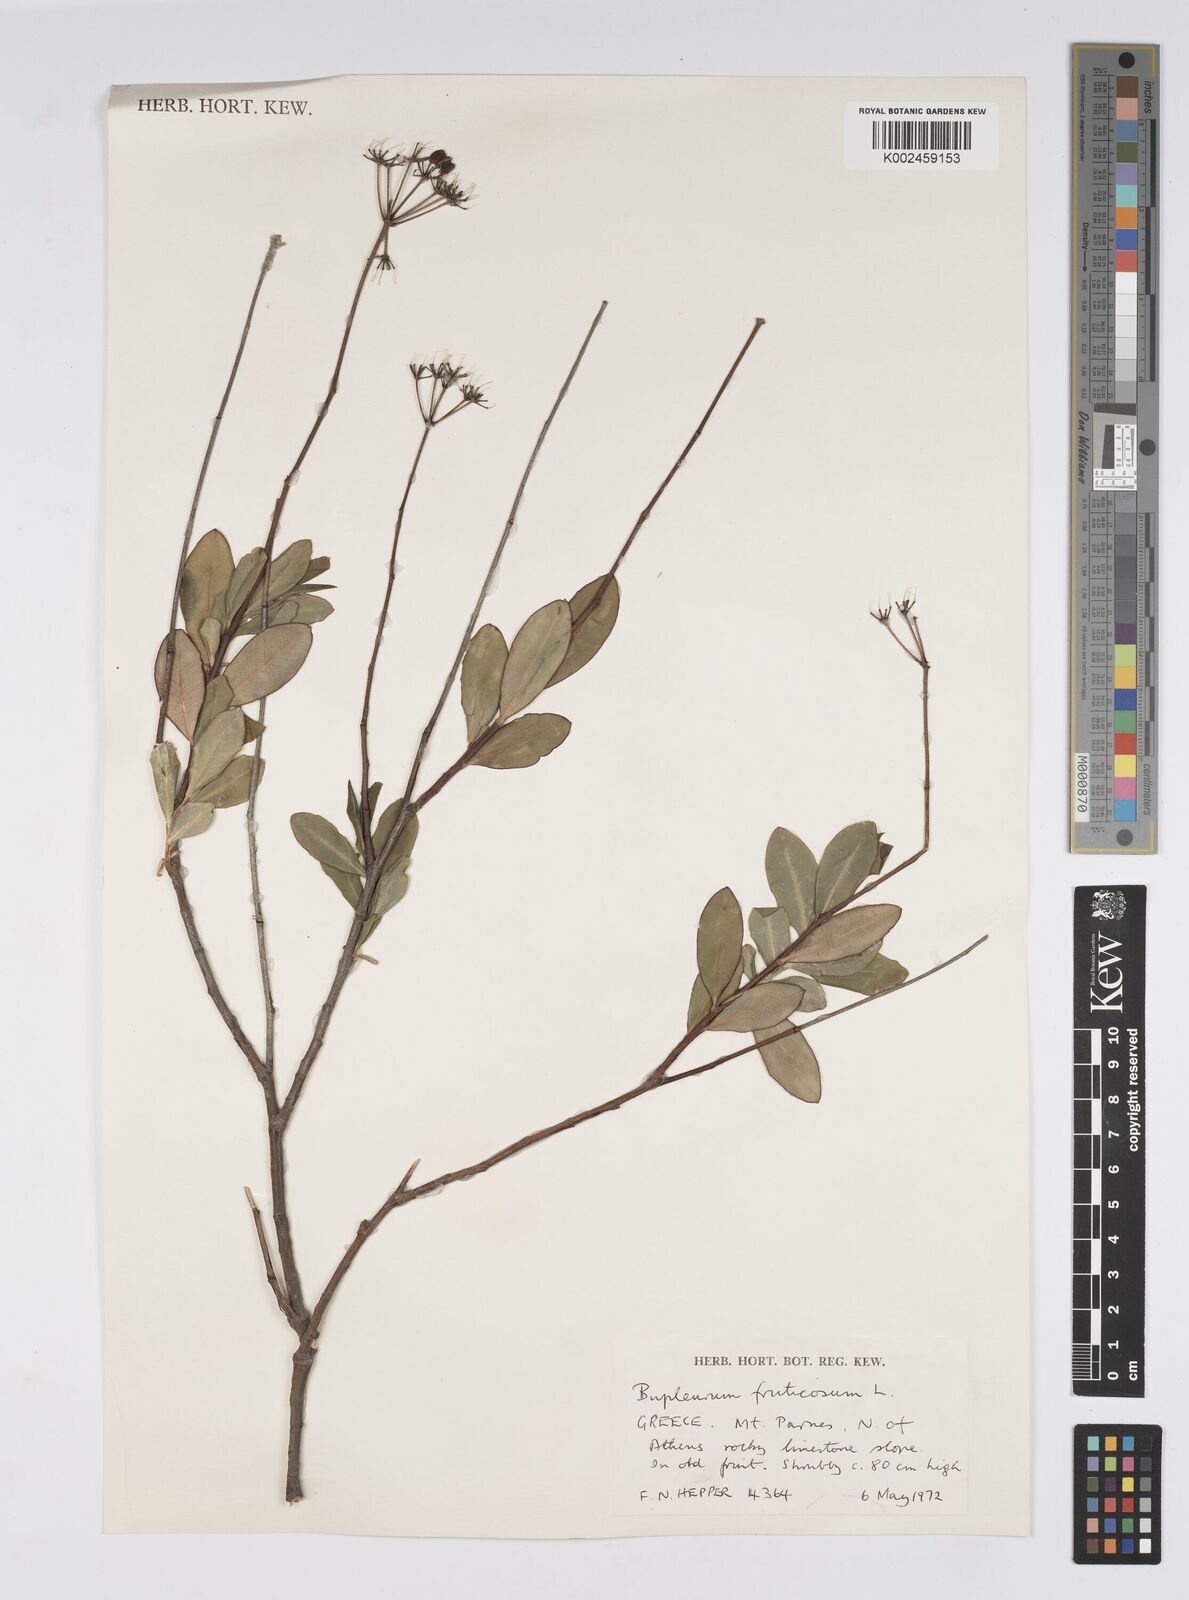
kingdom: Plantae
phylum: Tracheophyta
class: Magnoliopsida
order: Apiales
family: Apiaceae
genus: Bupleurum
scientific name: Bupleurum fruticosum
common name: Shrubby hare's-ear
